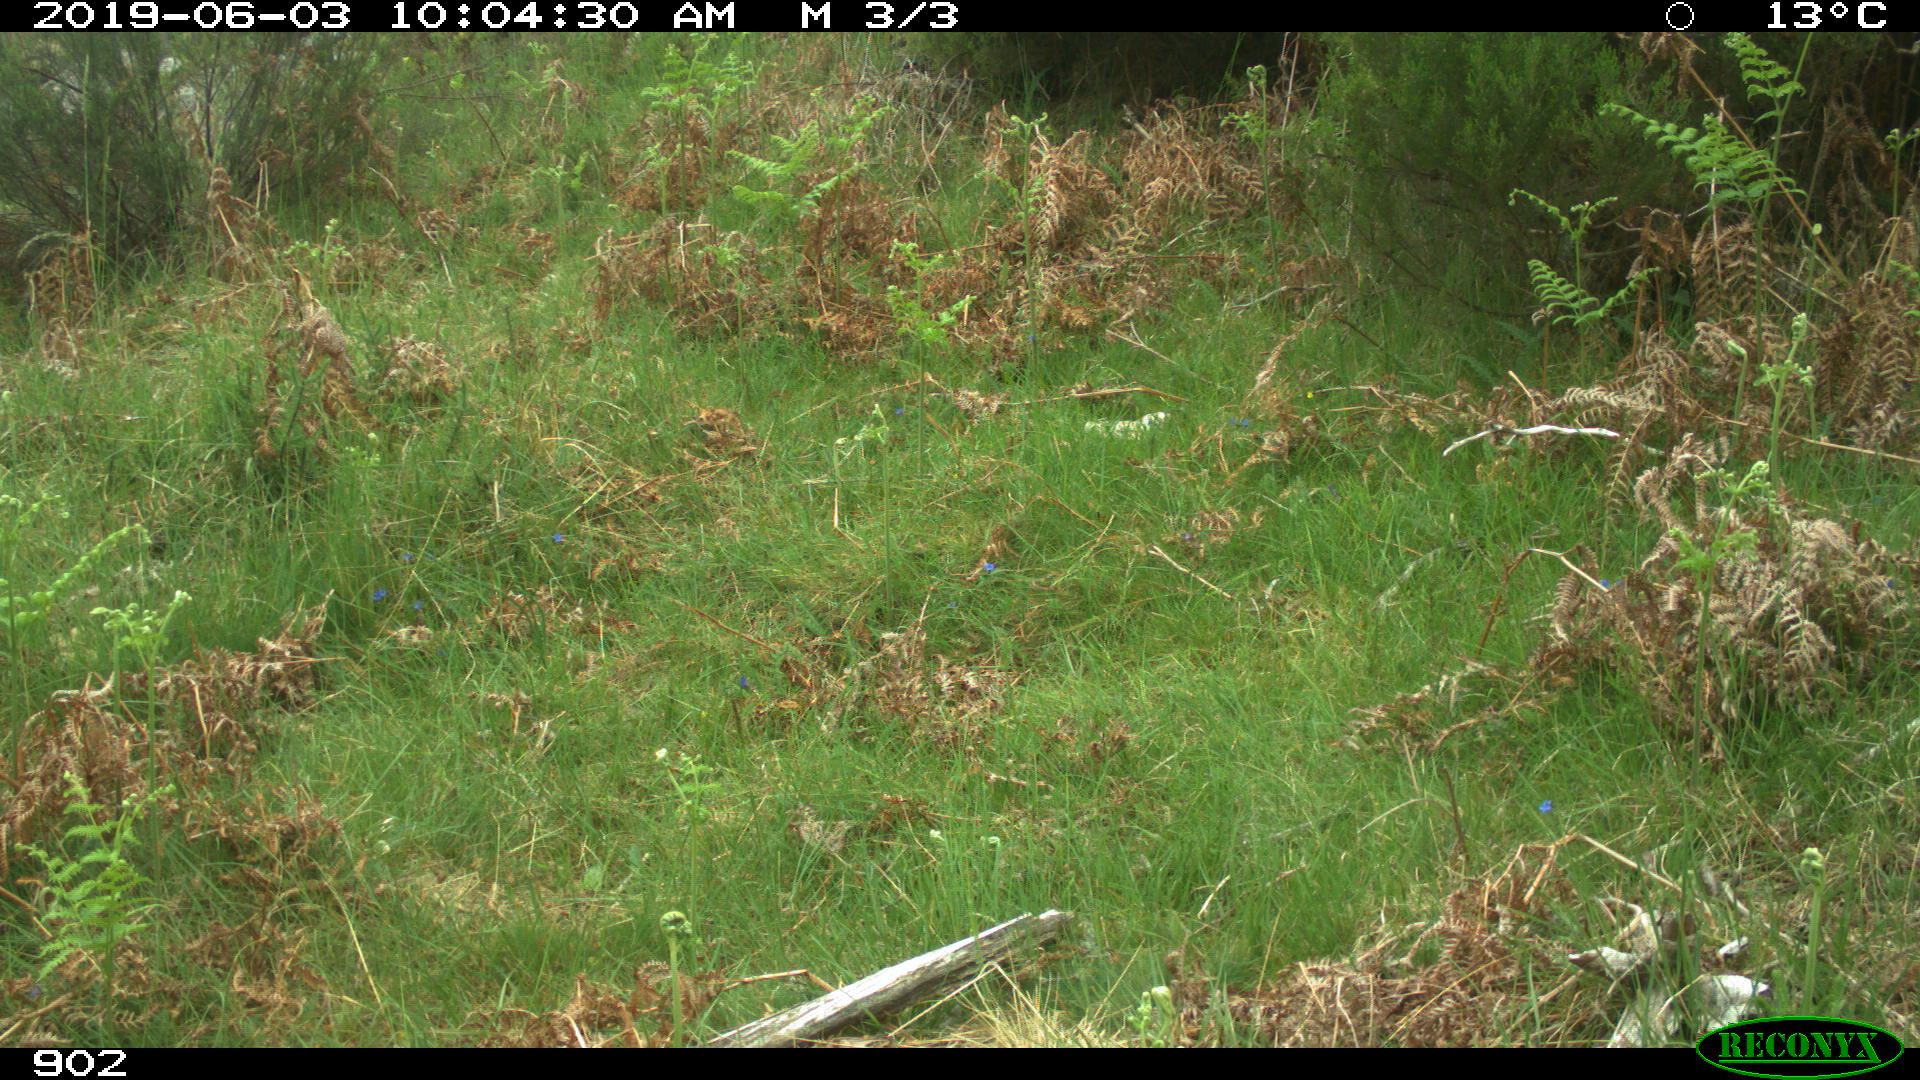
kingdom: Animalia
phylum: Chordata
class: Mammalia
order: Carnivora
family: Canidae
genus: Vulpes
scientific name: Vulpes vulpes
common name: Red fox
